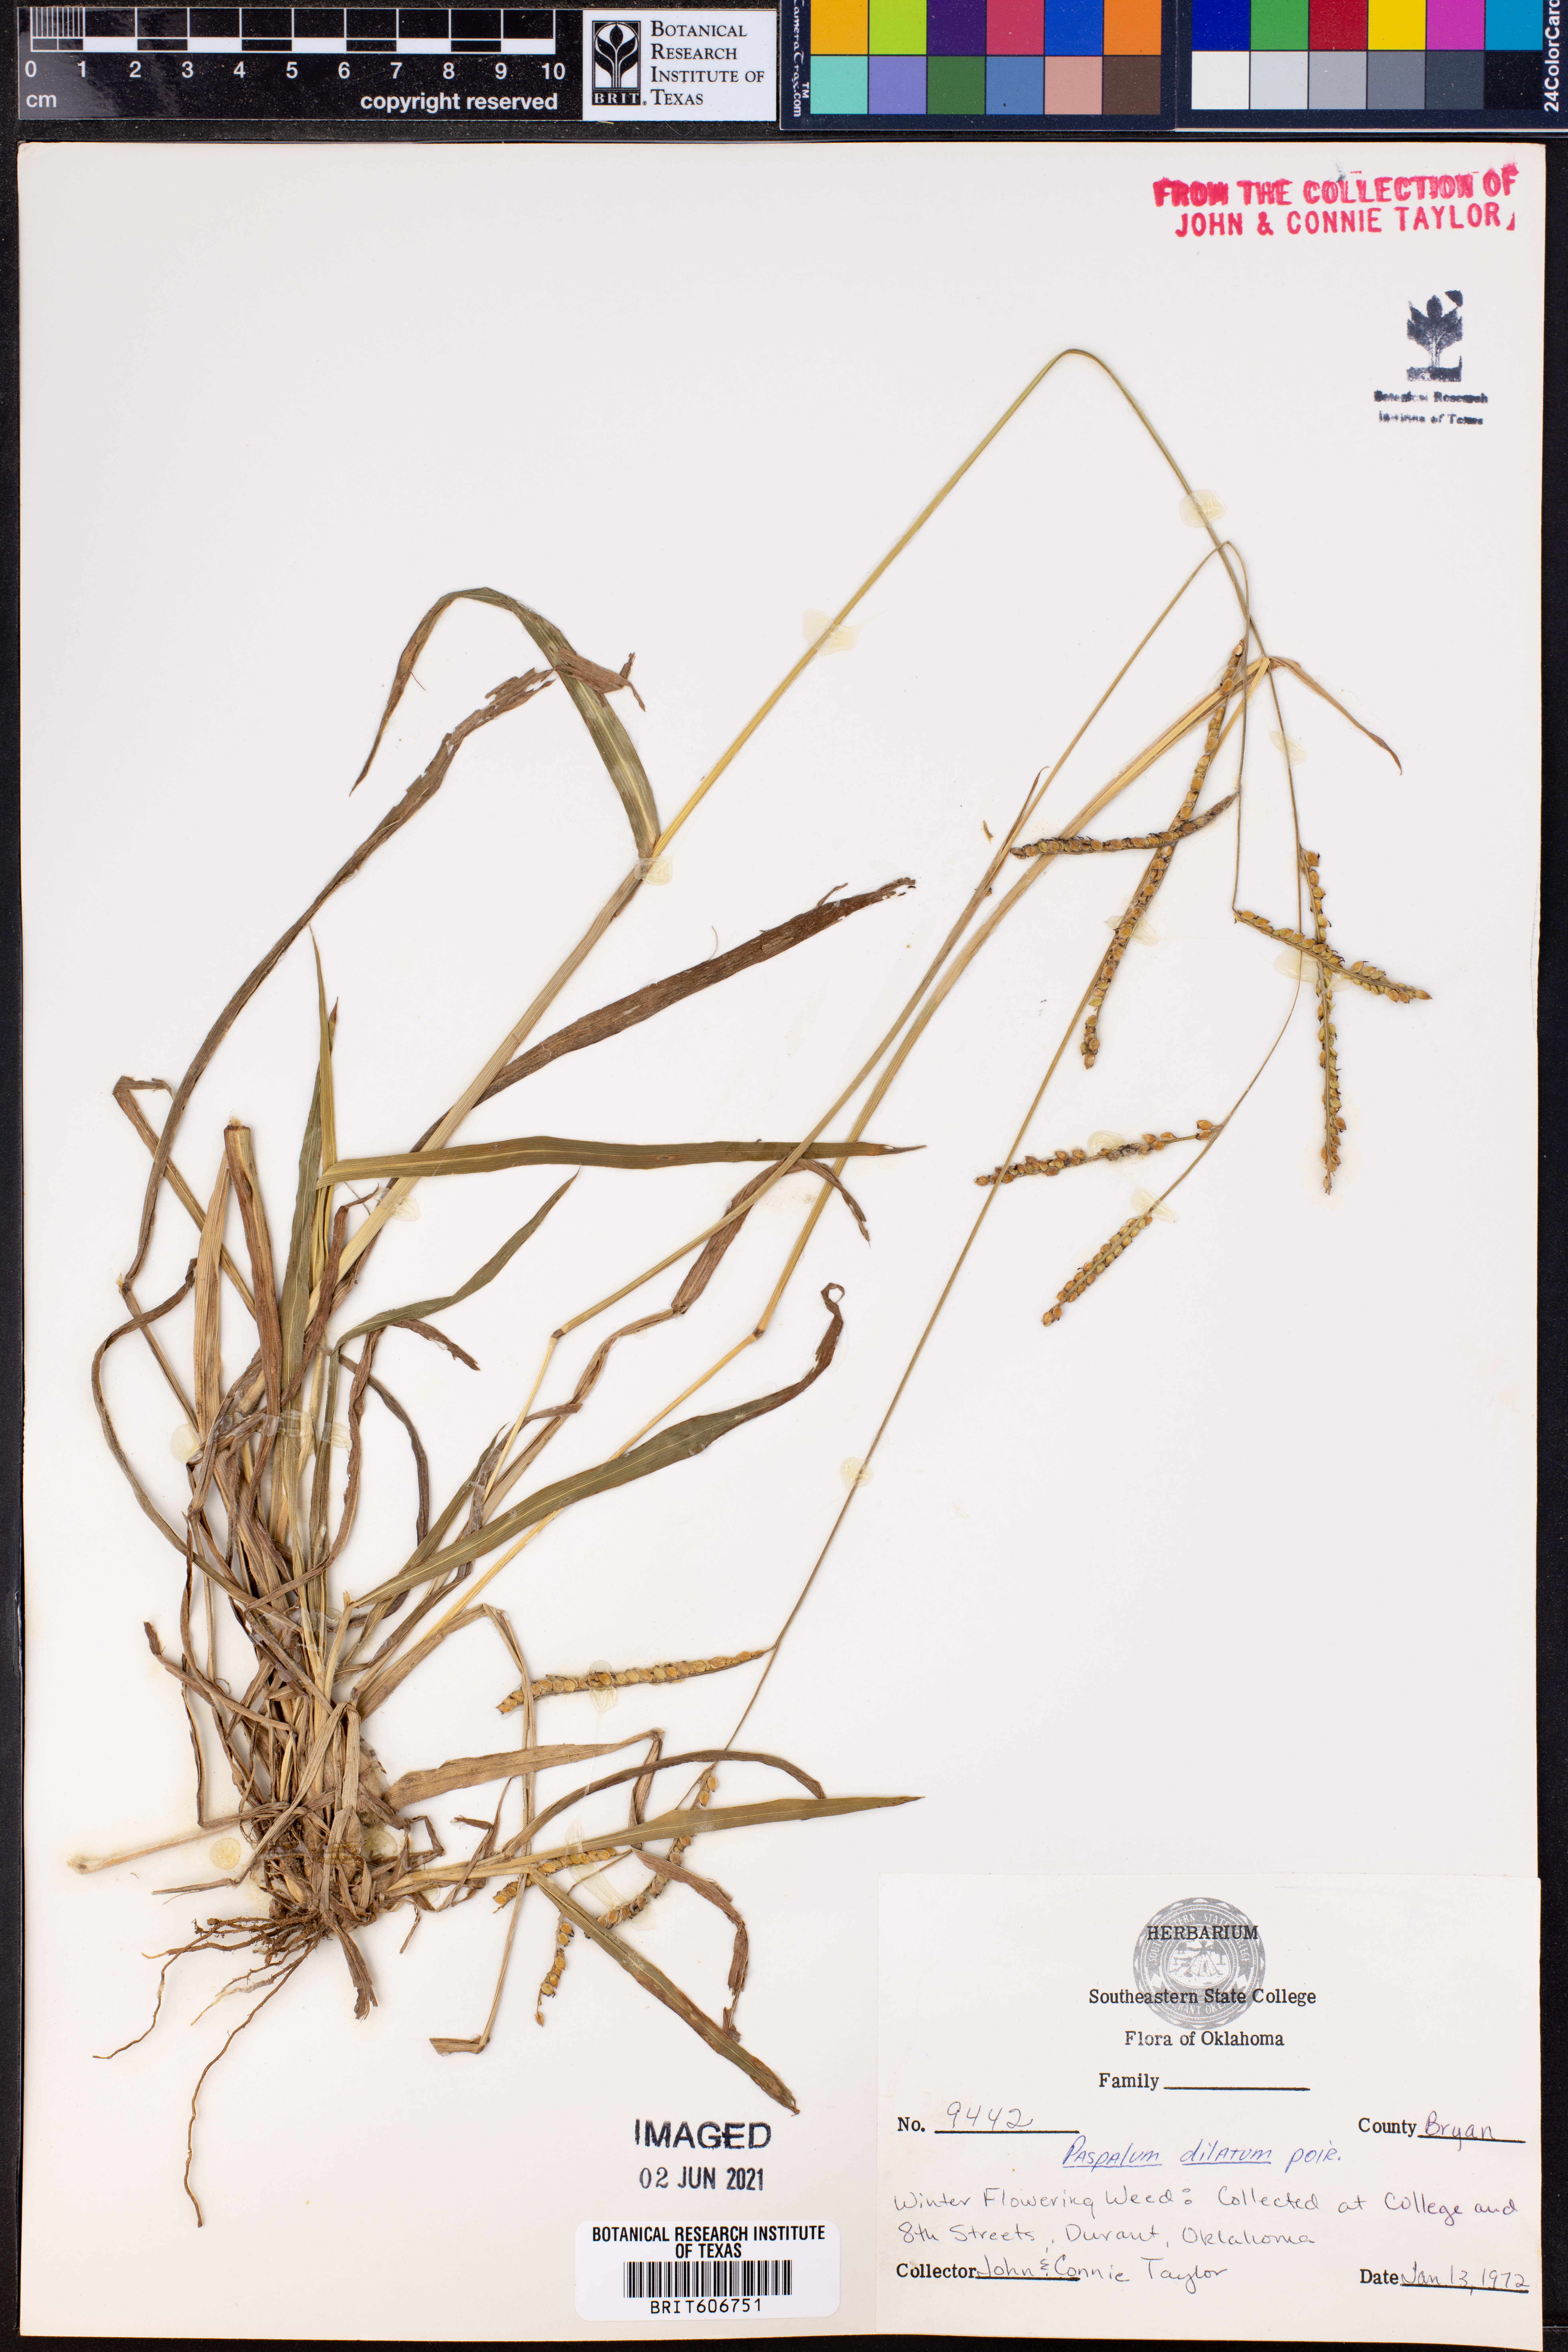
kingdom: Plantae
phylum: Tracheophyta
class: Liliopsida
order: Poales
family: Poaceae
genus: Paspalum
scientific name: Paspalum dilatatum
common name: Dallisgrass
